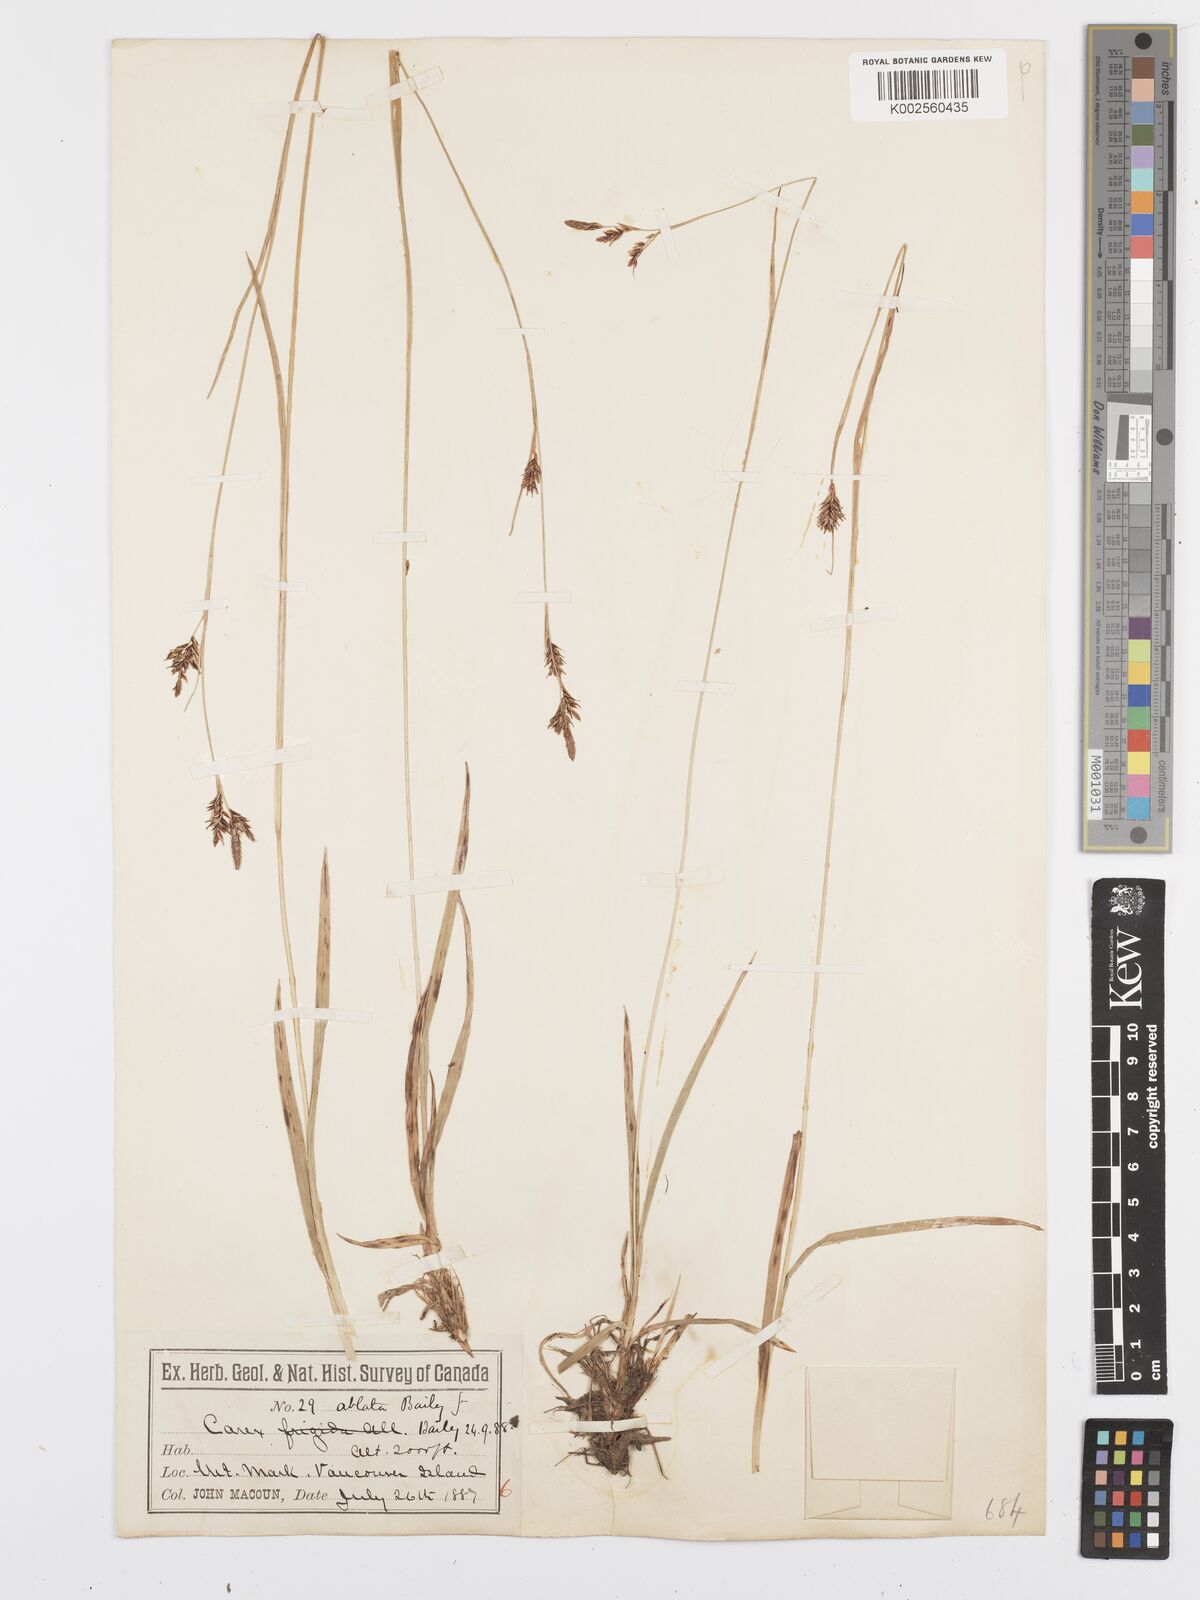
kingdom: Plantae
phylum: Tracheophyta
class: Liliopsida
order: Poales
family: Cyperaceae
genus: Carex
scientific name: Carex luzulina
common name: Spring sedge
